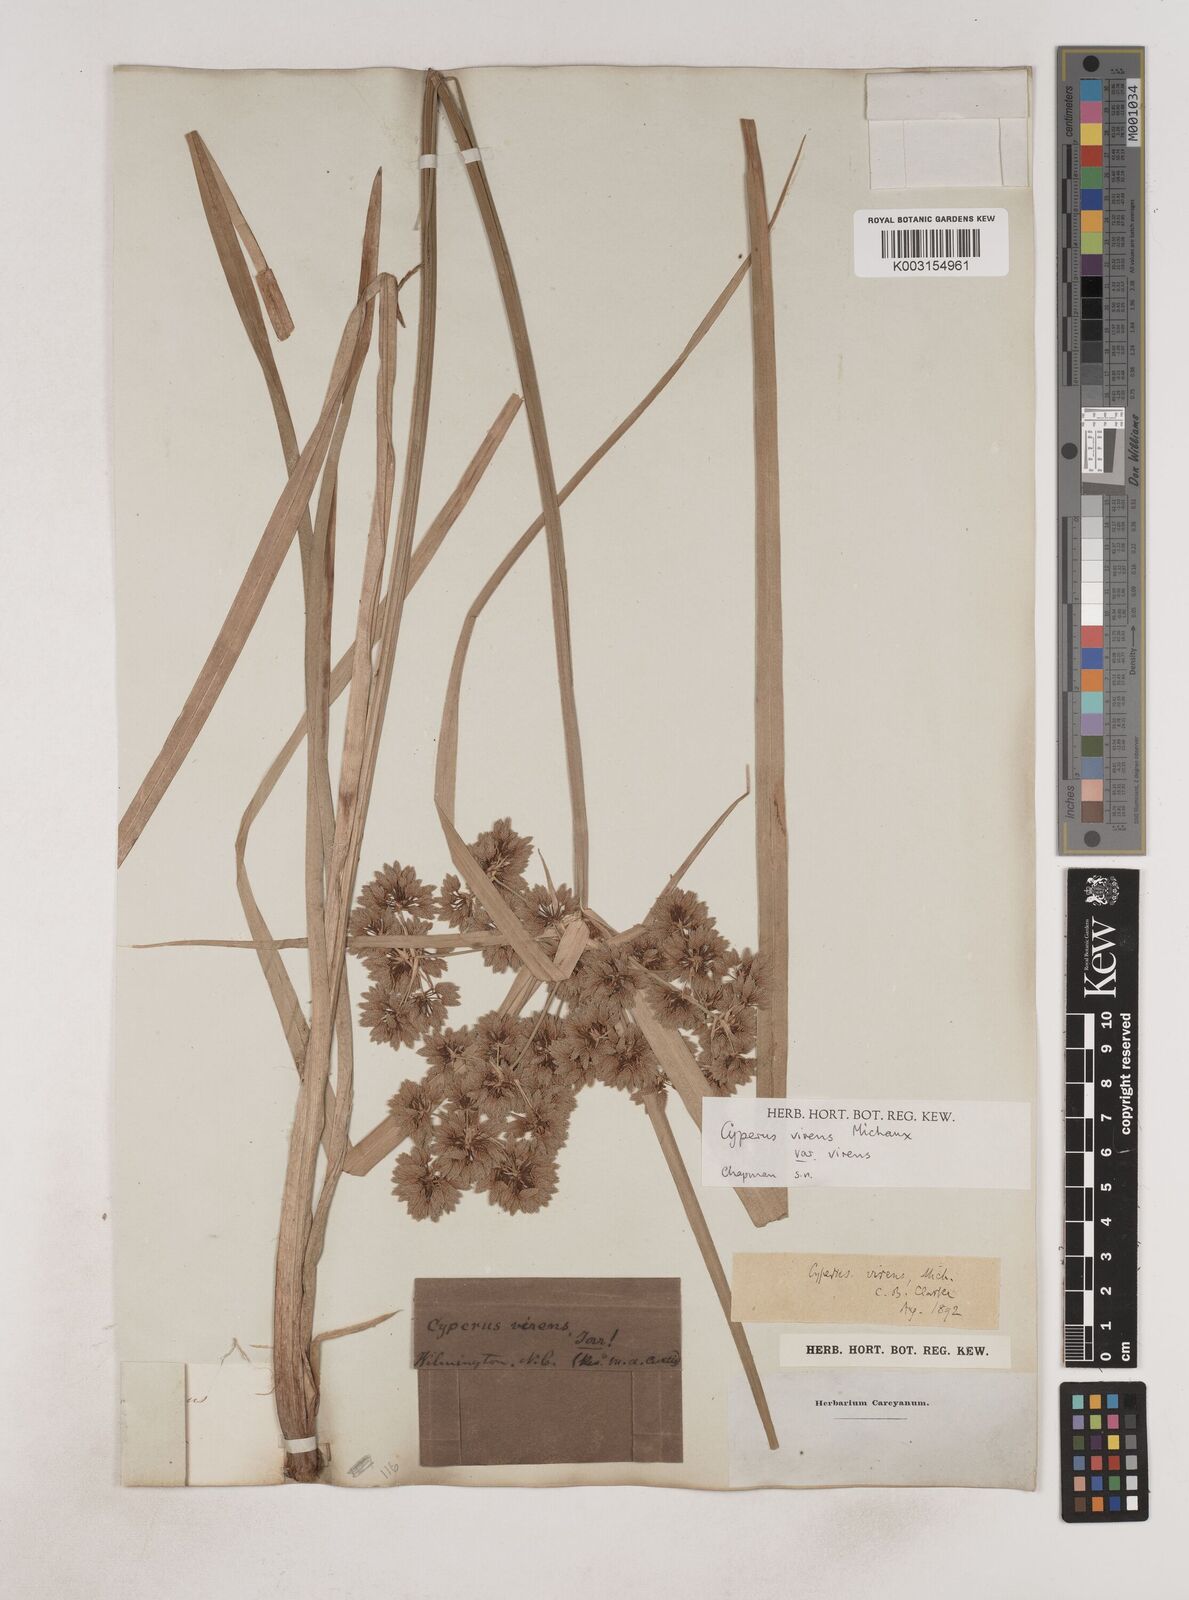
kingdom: Plantae
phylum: Tracheophyta
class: Liliopsida
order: Poales
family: Cyperaceae
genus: Cyperus
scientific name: Cyperus virens
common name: Green flatsedge
